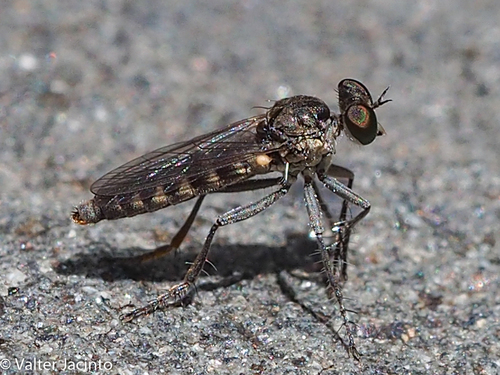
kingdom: Animalia
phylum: Arthropoda
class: Insecta
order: Diptera
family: Asilidae
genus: Dichropogon
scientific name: Dichropogon schineri
